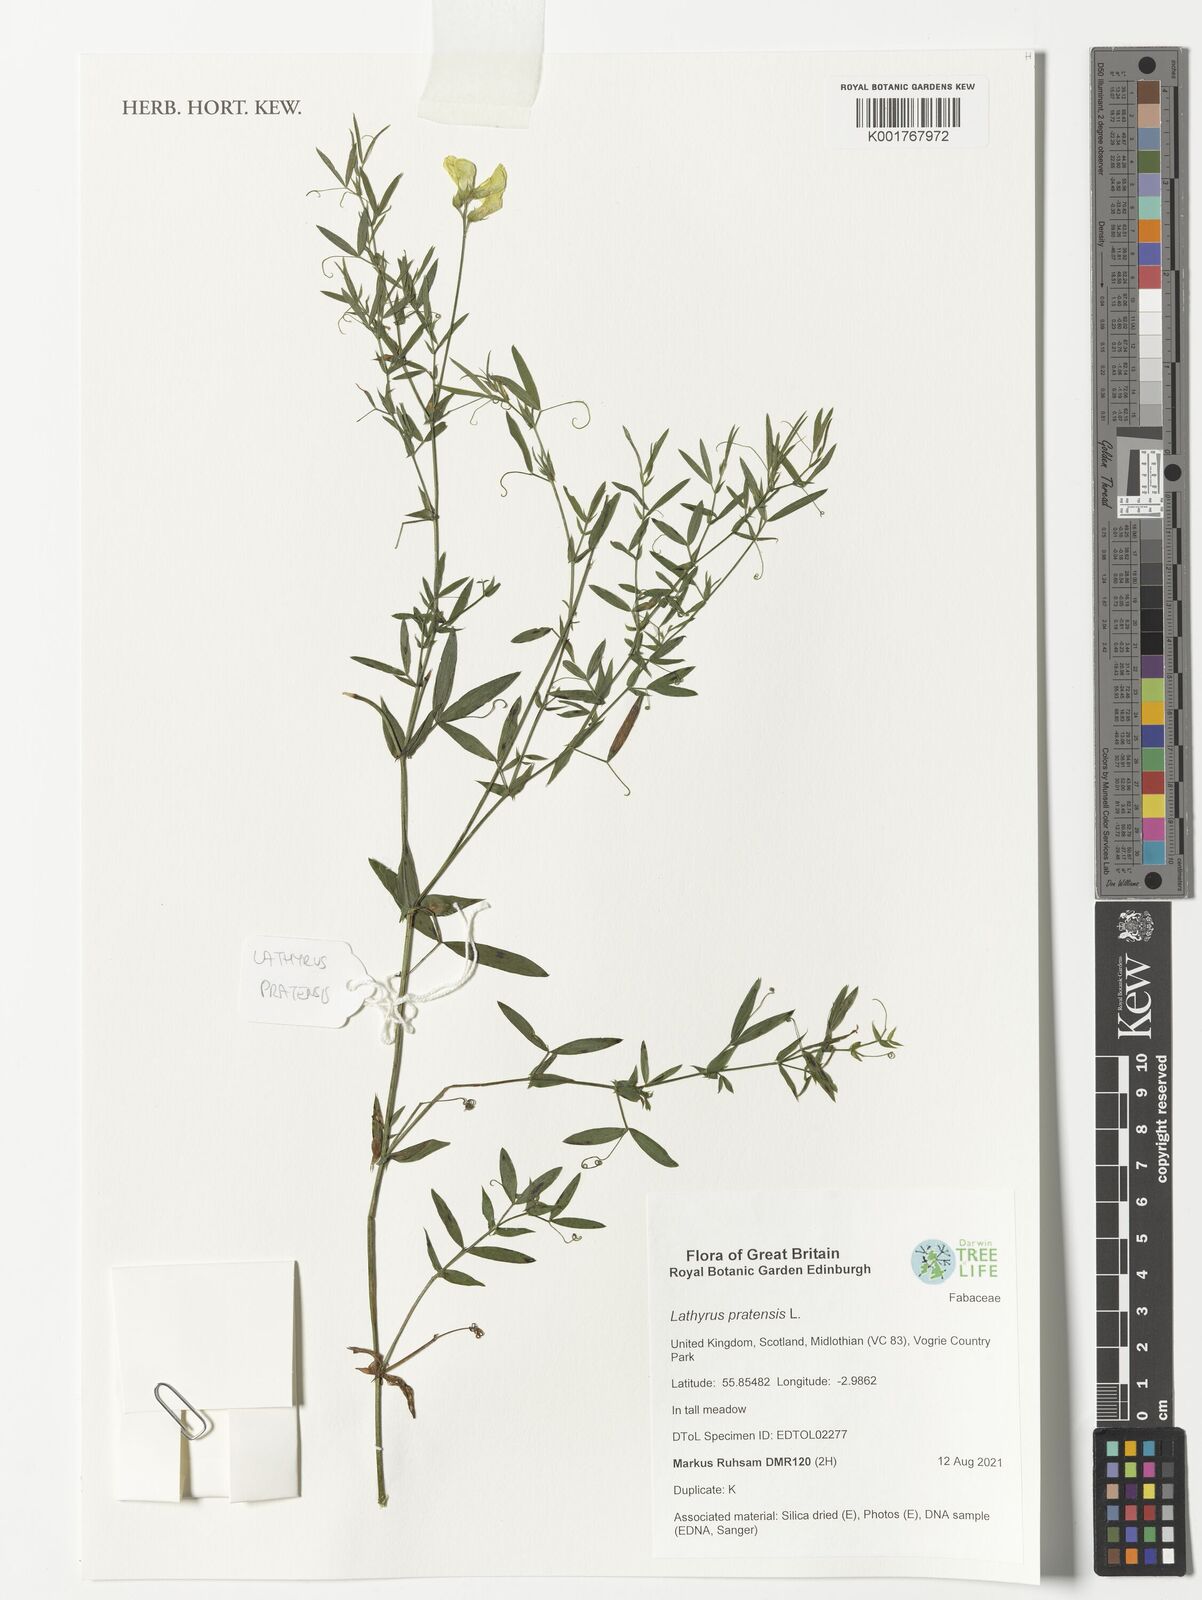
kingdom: Plantae
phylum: Tracheophyta
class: Magnoliopsida
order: Fabales
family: Fabaceae
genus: Lathyrus
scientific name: Lathyrus pratensis
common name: Meadow vetchling
